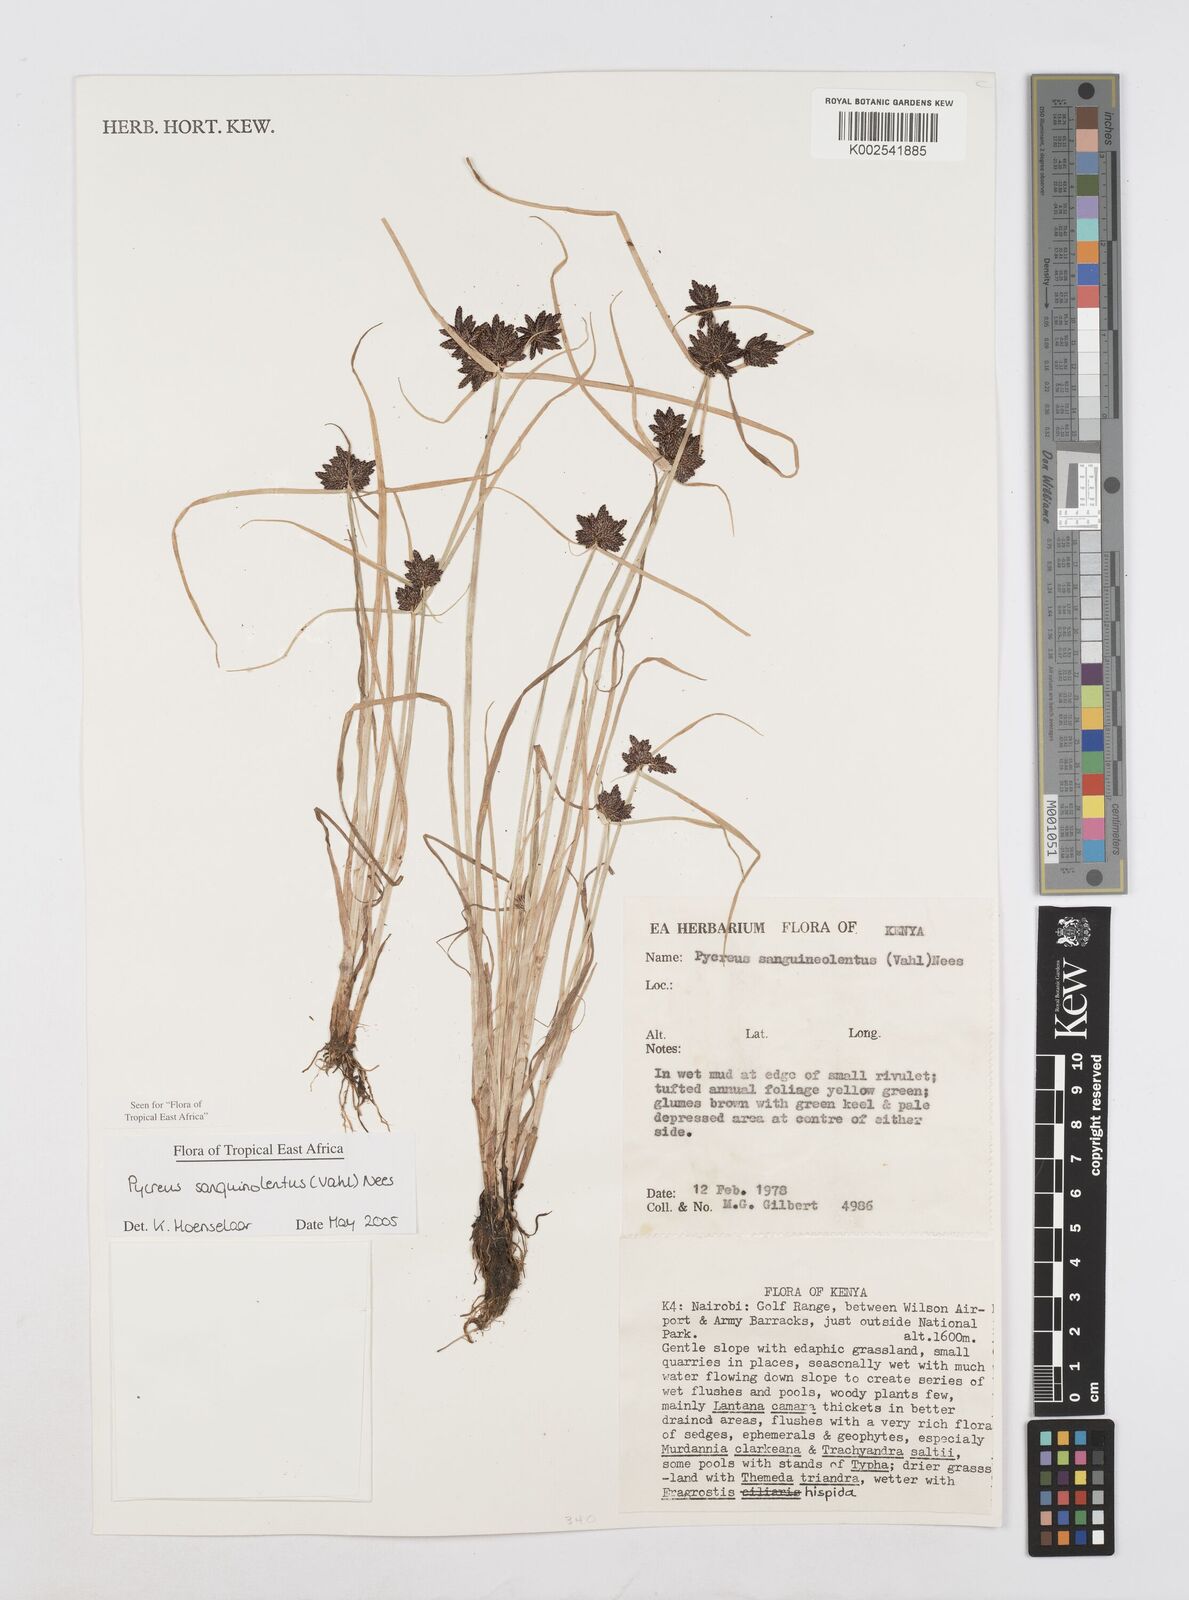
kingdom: Plantae
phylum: Tracheophyta
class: Liliopsida
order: Poales
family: Cyperaceae
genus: Cyperus
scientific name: Cyperus sanguinolentus
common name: Purpleglume flatsedge
